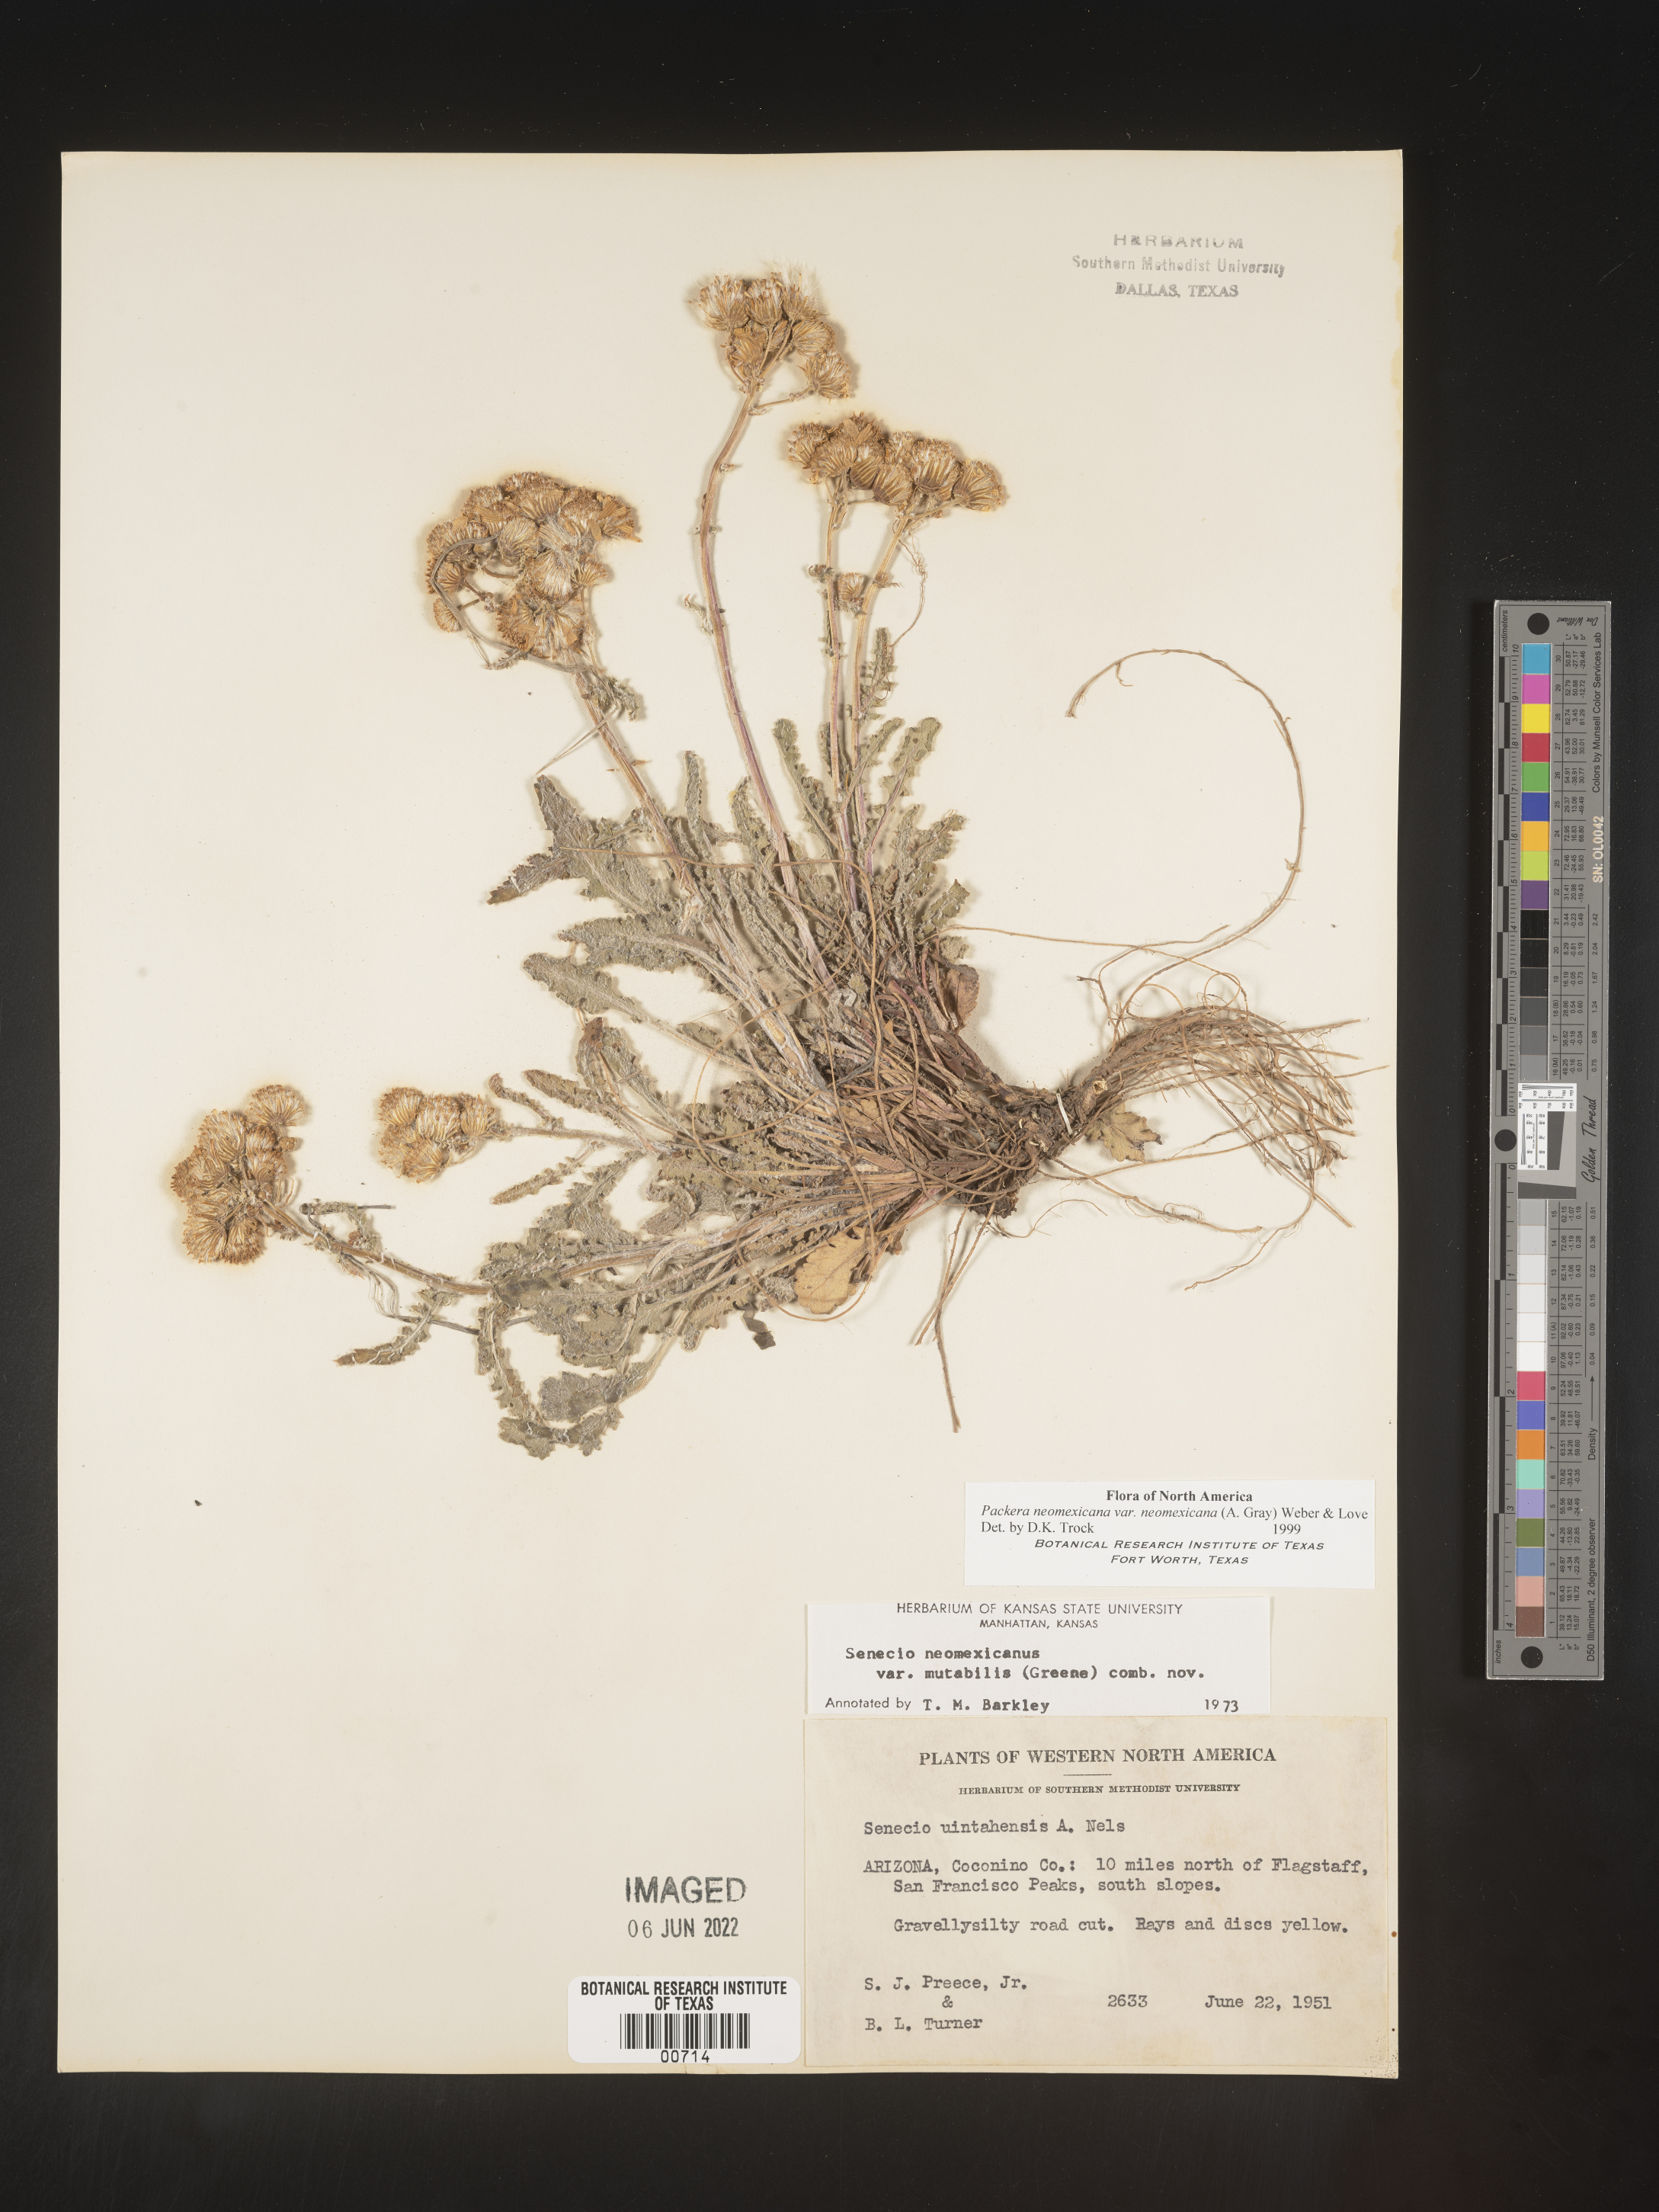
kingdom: Plantae
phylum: Tracheophyta
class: Magnoliopsida
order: Asterales
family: Asteraceae
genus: Packera
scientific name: Packera neomexicana
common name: New mexico butterweed
